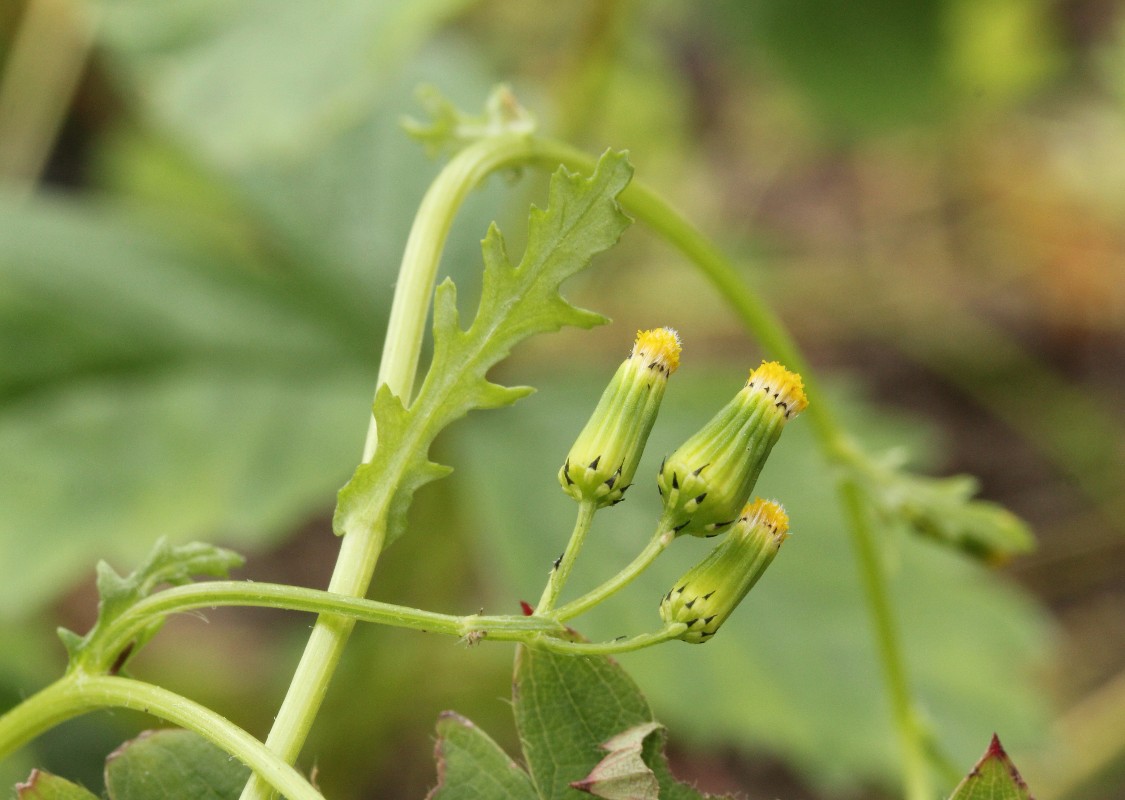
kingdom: Fungi
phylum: Basidiomycota
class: Pucciniomycetes
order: Pucciniales
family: Pucciniaceae
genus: Puccinia
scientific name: Puccinia lagenophorae
